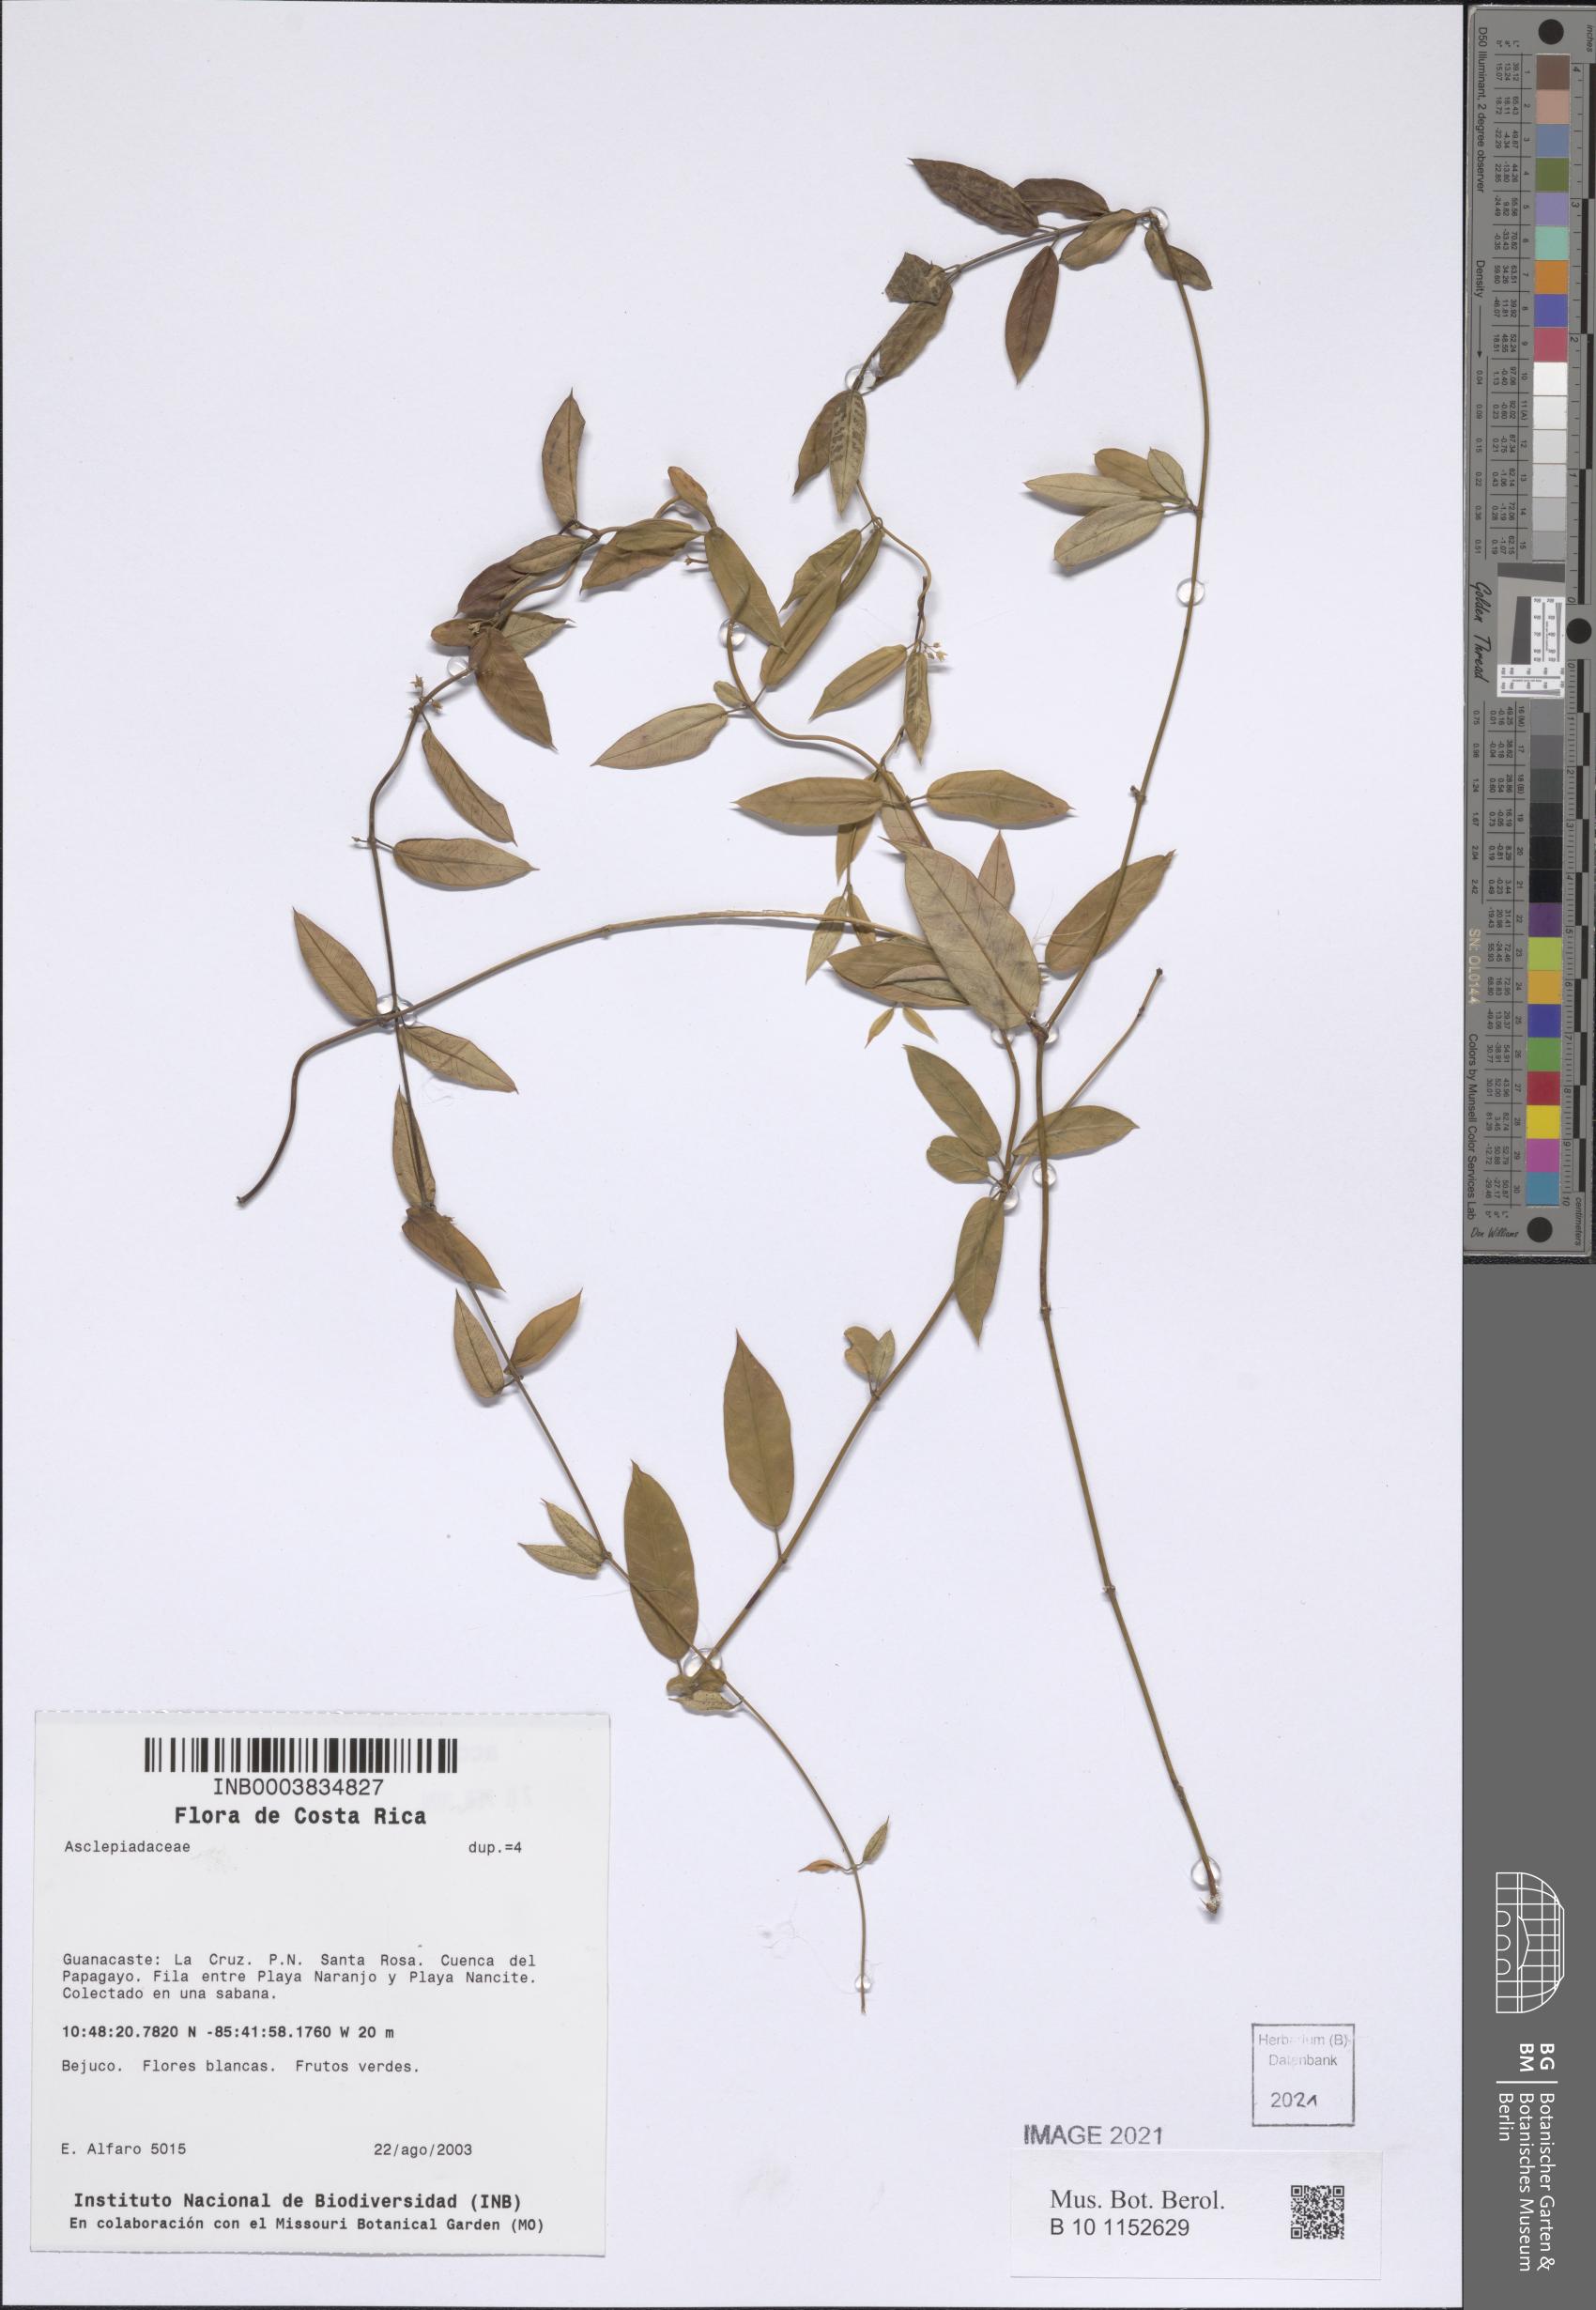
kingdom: Plantae
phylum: Tracheophyta
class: Magnoliopsida
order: Gentianales
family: Apocynaceae
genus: Metastelma
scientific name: Metastelma barbigerum
